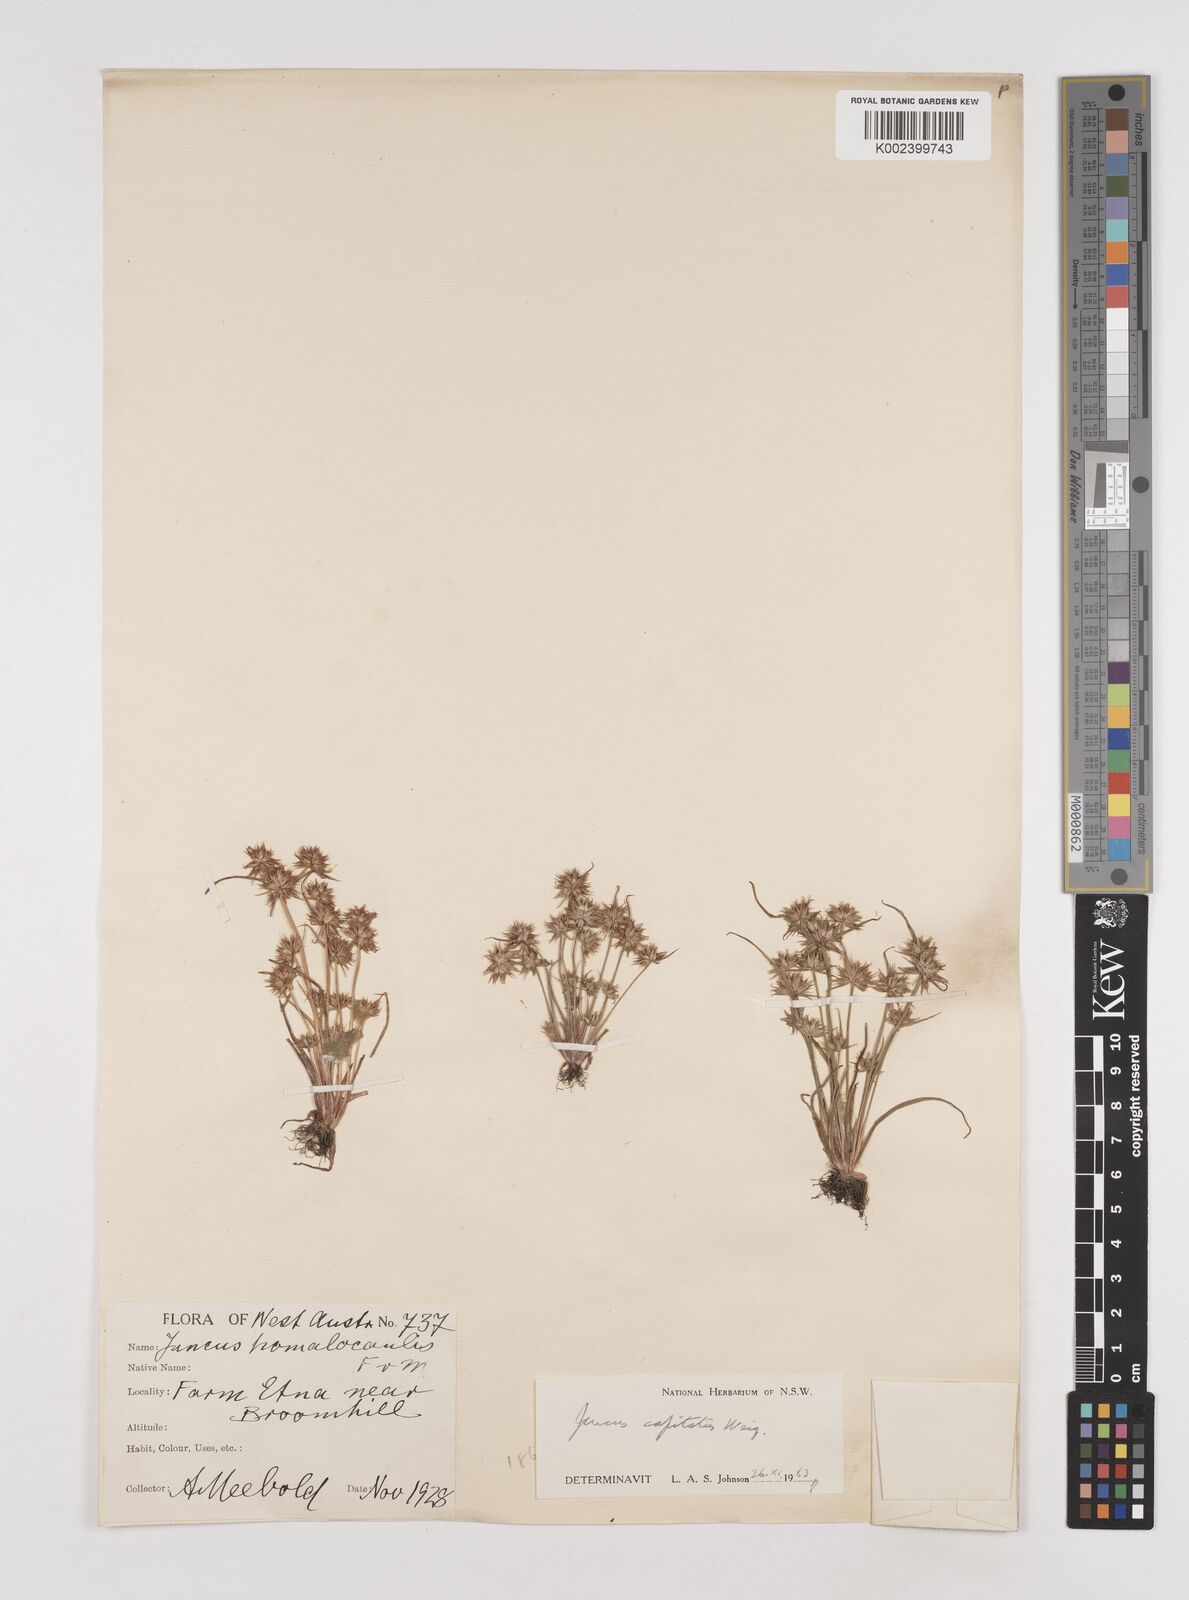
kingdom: Plantae
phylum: Tracheophyta
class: Liliopsida
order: Poales
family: Juncaceae
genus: Juncus
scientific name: Juncus capitatus
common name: Dwarf rush
